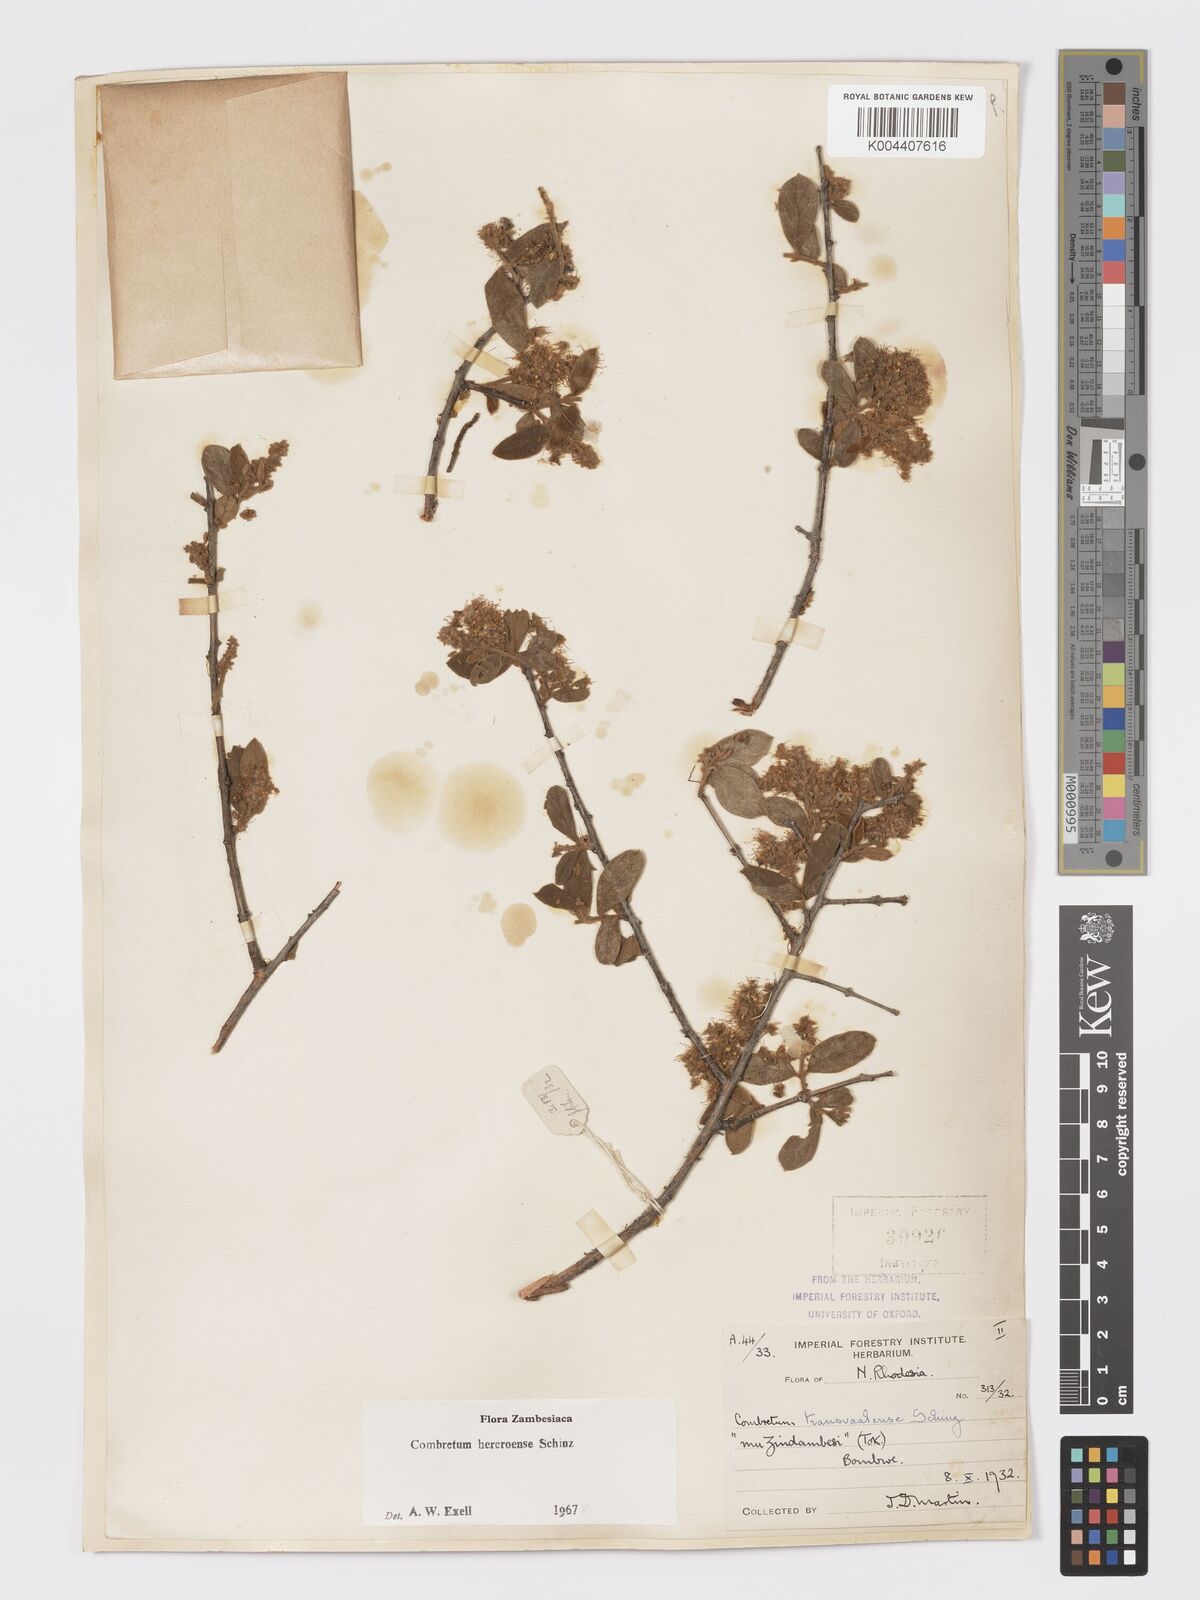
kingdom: Plantae
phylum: Tracheophyta
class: Magnoliopsida
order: Myrtales
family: Combretaceae
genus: Combretum
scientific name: Combretum hereroense
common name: Russet bushwillow
